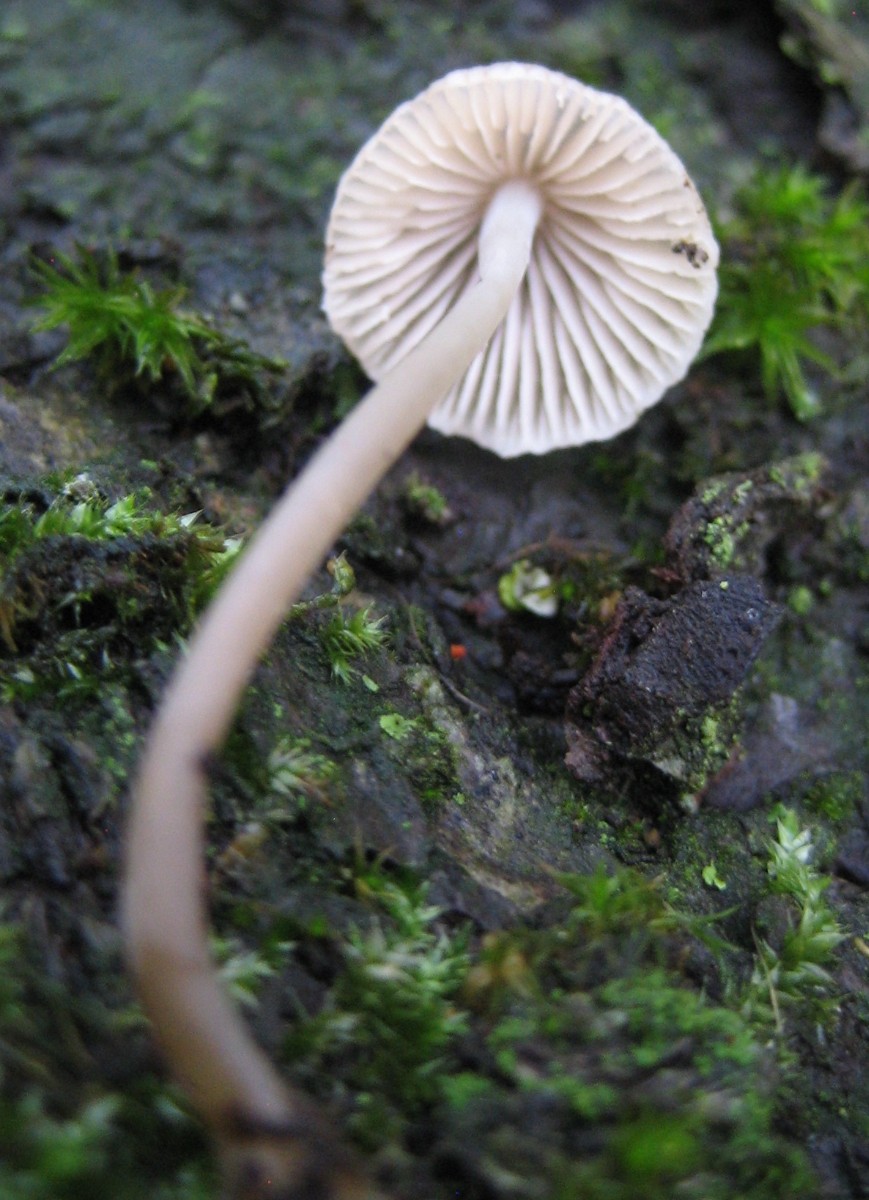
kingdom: Fungi
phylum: Basidiomycota
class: Agaricomycetes
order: Agaricales
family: Porotheleaceae
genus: Phloeomana
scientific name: Phloeomana hiemalis
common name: sen huesvamp
